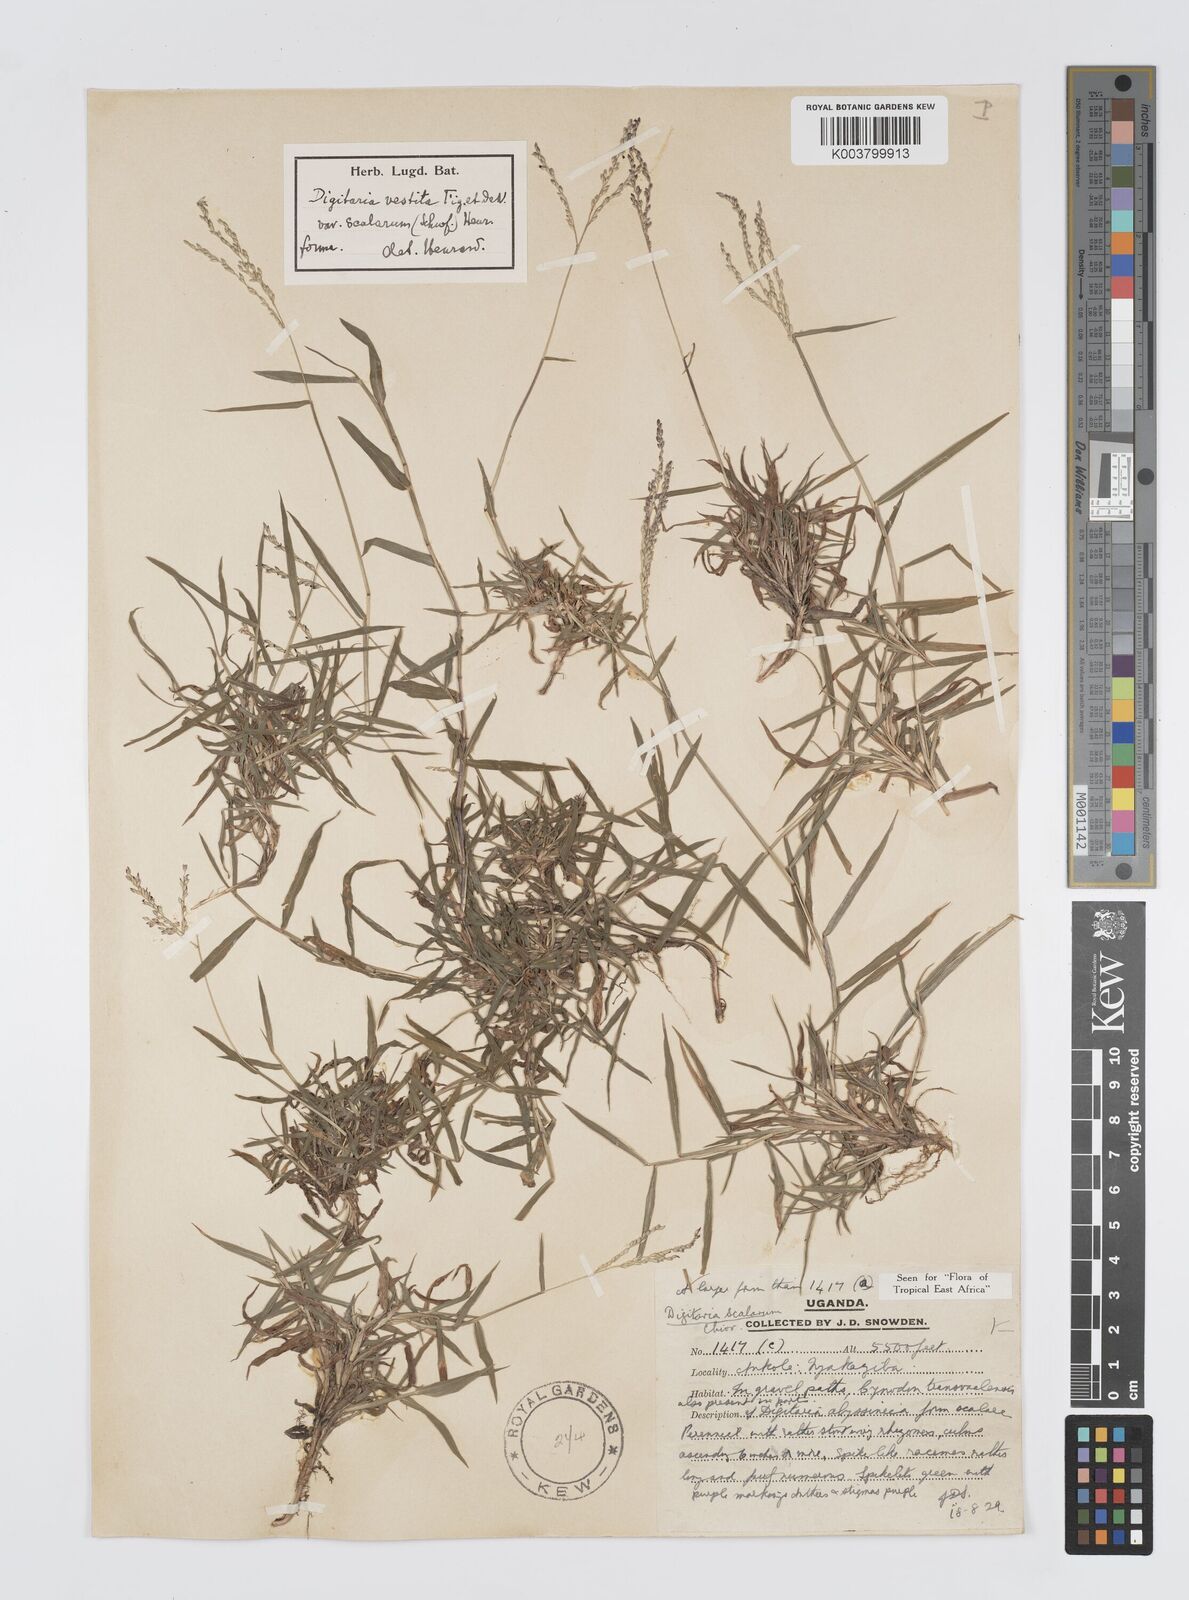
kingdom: Plantae
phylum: Tracheophyta
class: Liliopsida
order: Poales
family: Poaceae
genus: Digitaria
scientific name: Digitaria abyssinica
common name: African couchgrass
